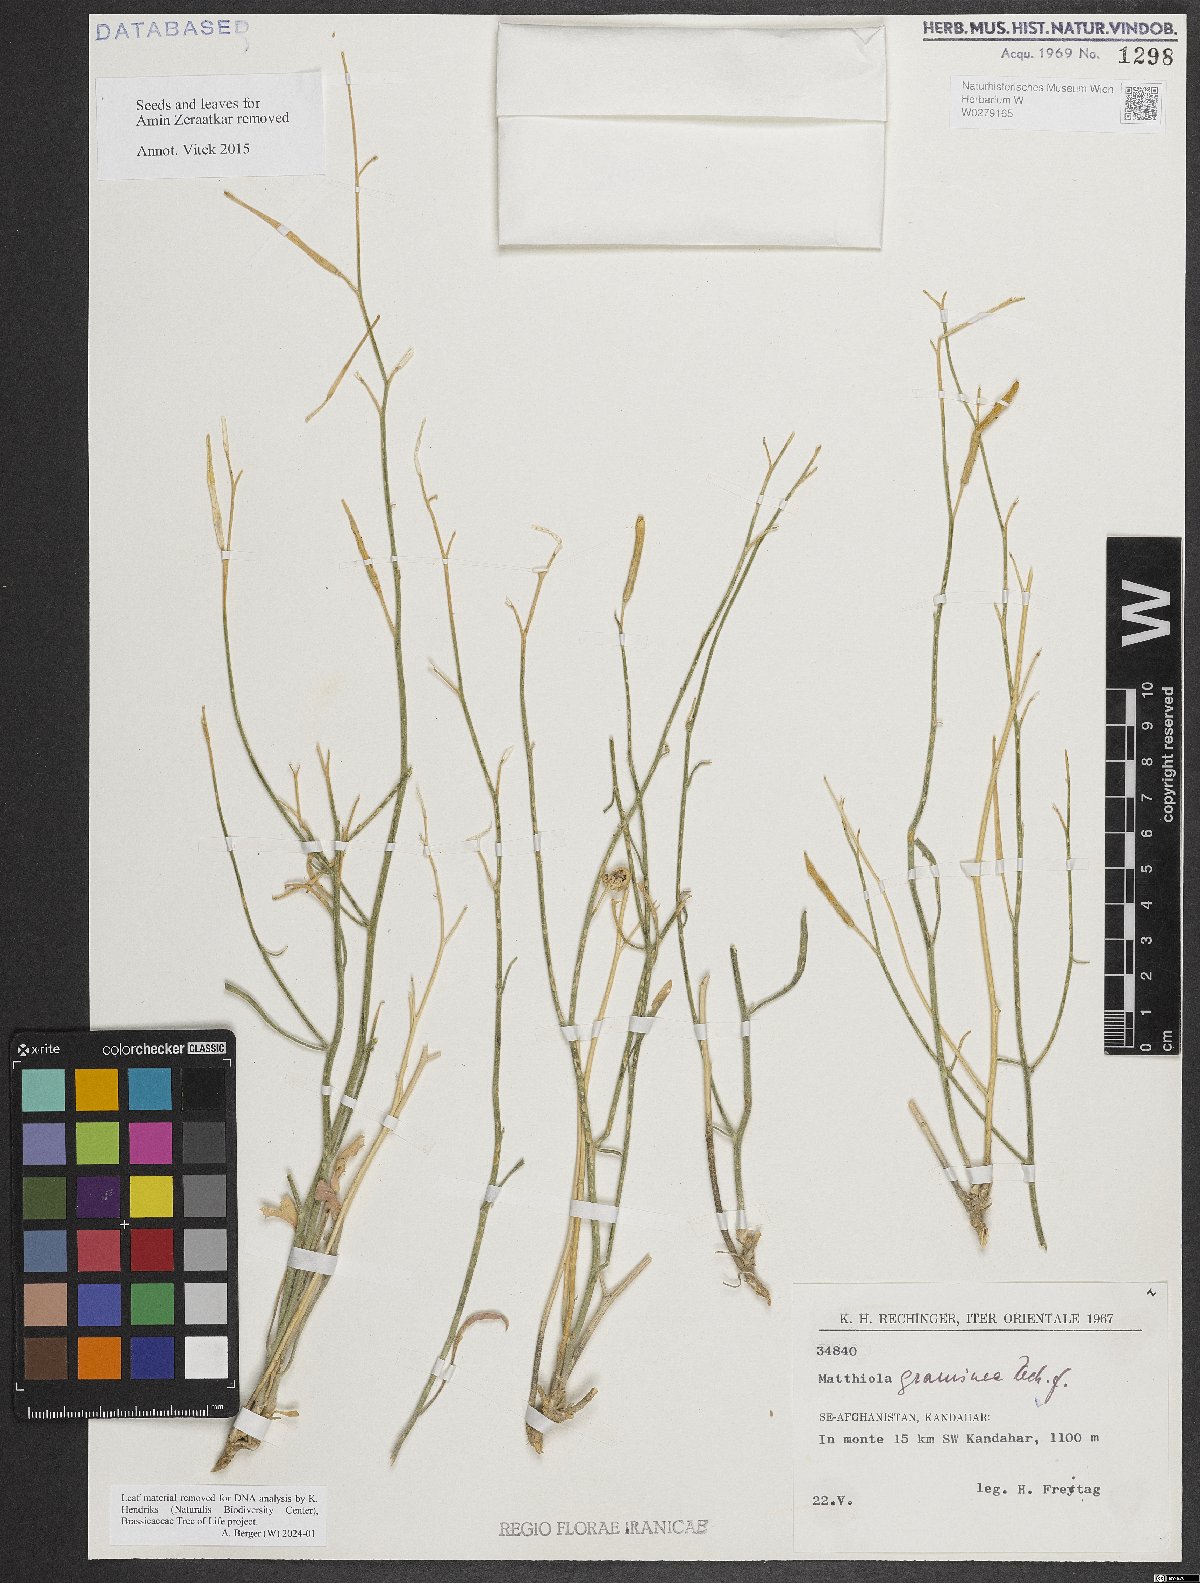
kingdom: Plantae
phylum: Tracheophyta
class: Magnoliopsida
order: Brassicales
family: Brassicaceae
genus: Matthiola
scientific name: Matthiola graminea
